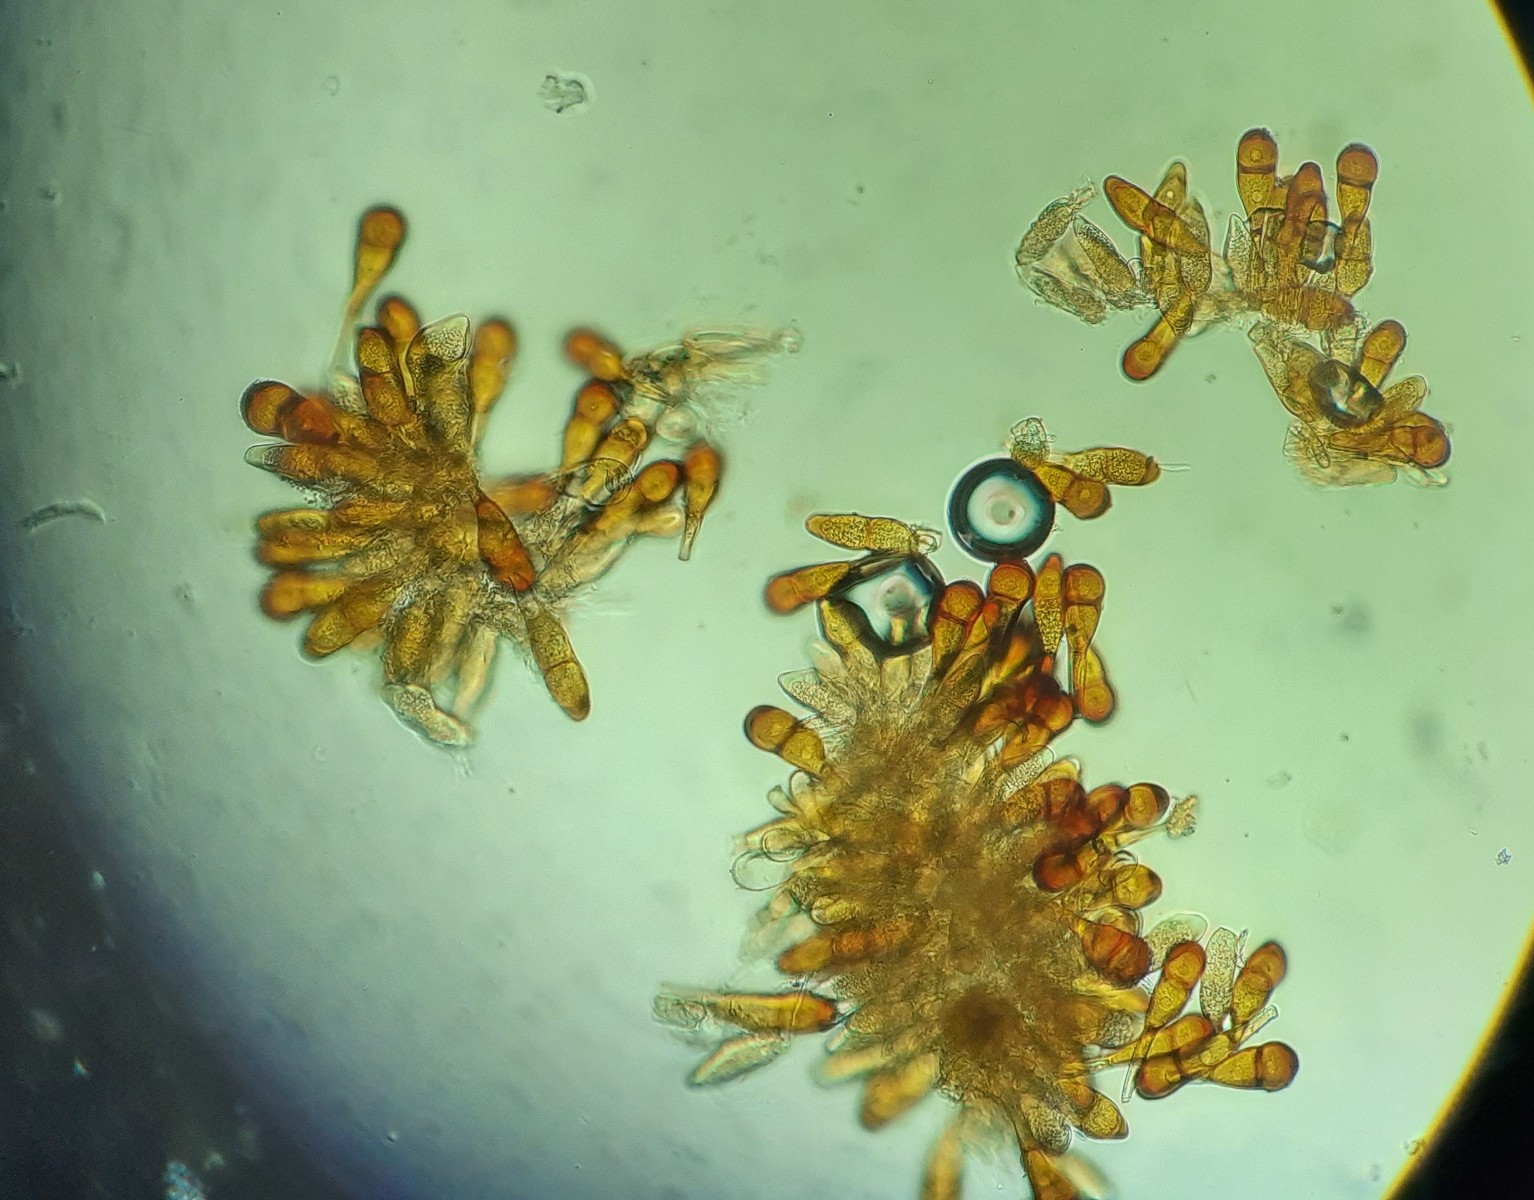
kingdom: Fungi
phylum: Basidiomycota
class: Pucciniomycetes
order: Pucciniales
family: Pucciniaceae
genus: Puccinia
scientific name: Puccinia phragmitis
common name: tagrør-tvecellerust
